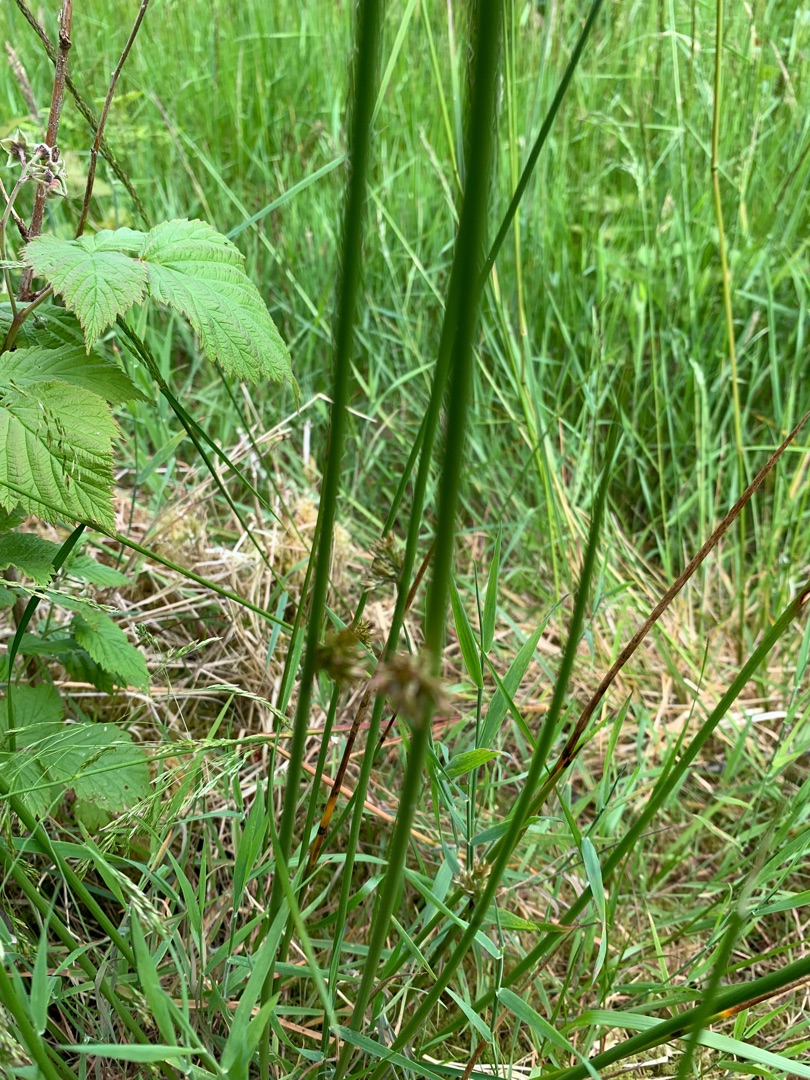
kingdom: Plantae
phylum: Tracheophyta
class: Liliopsida
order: Poales
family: Juncaceae
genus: Juncus
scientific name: Juncus effusus
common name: Lyse-siv
